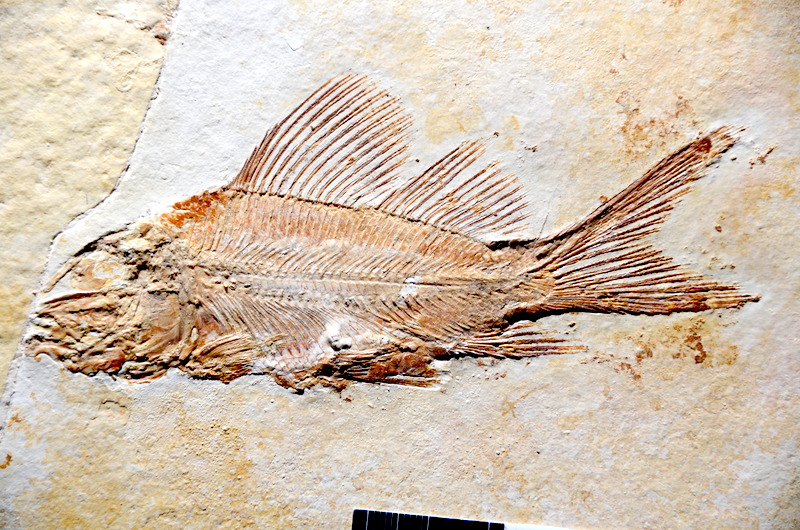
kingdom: Animalia
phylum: Chordata
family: Macrosemiidae
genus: Propterus
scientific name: Propterus elongatus
